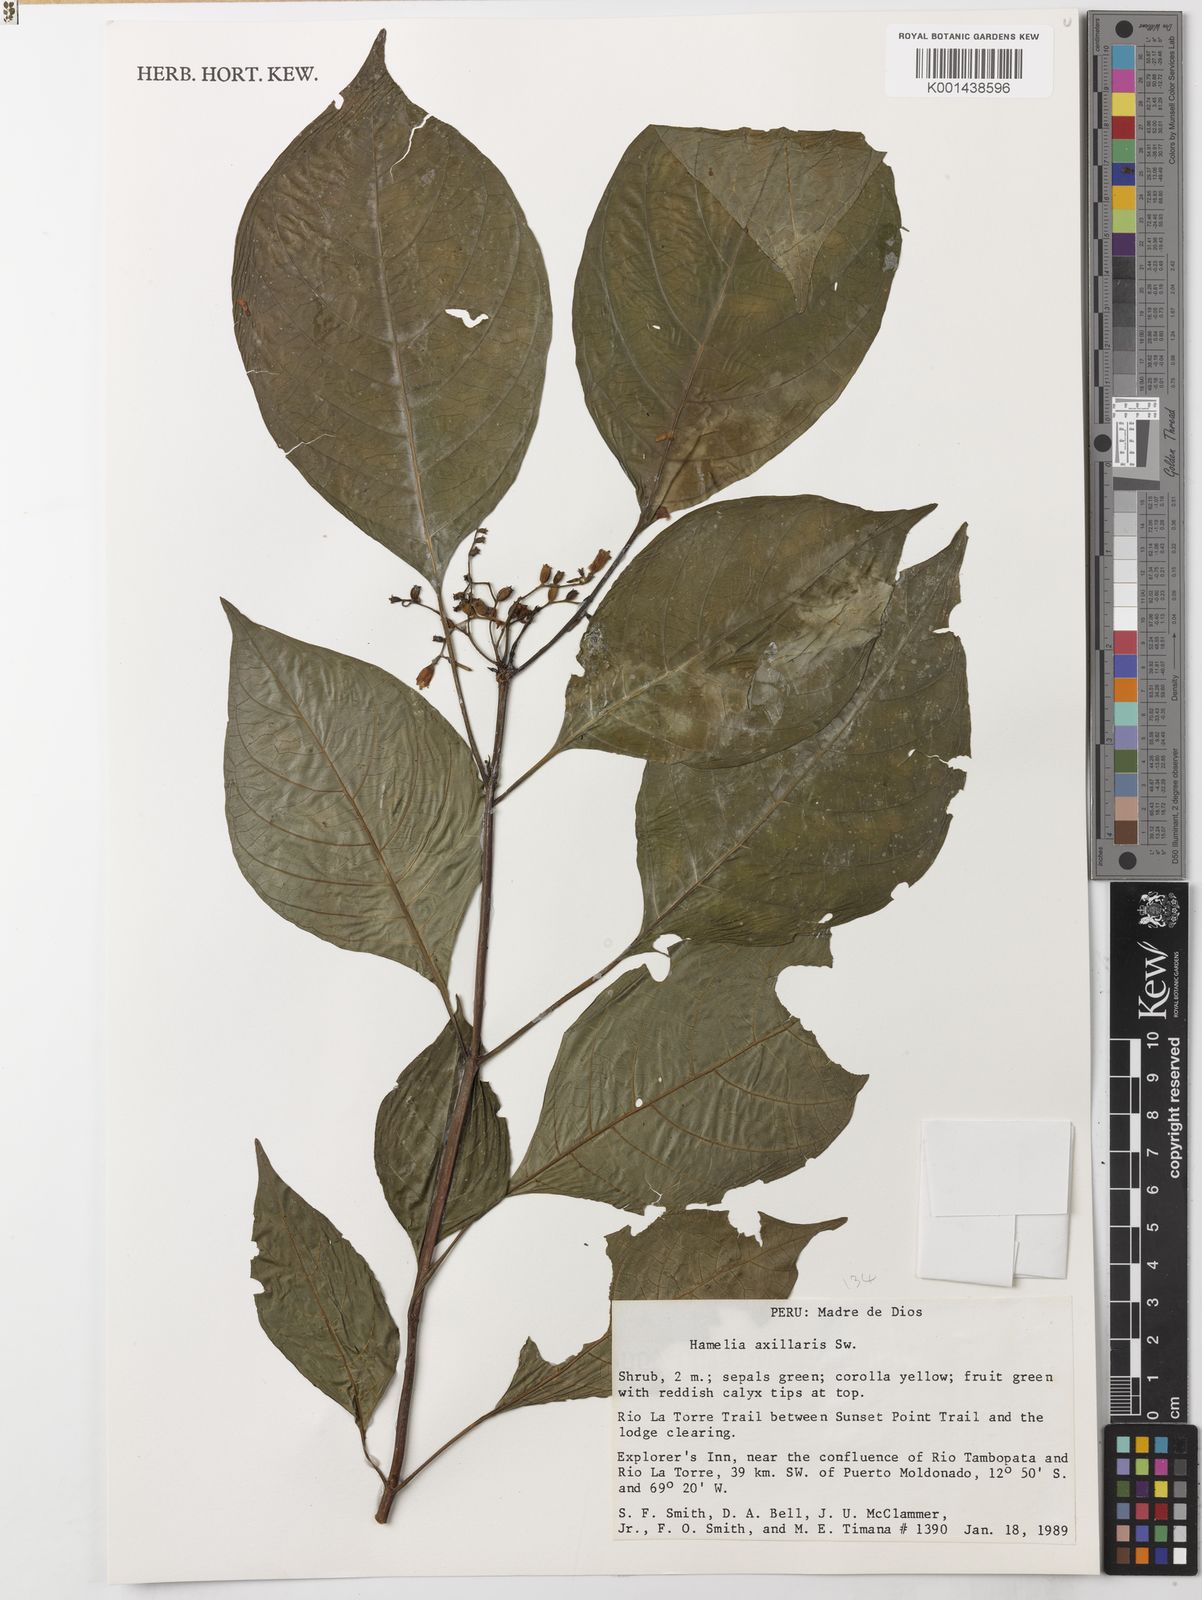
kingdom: Plantae
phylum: Tracheophyta
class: Magnoliopsida
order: Gentianales
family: Rubiaceae
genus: Hamelia
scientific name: Hamelia axillaris
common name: Balsamillo
